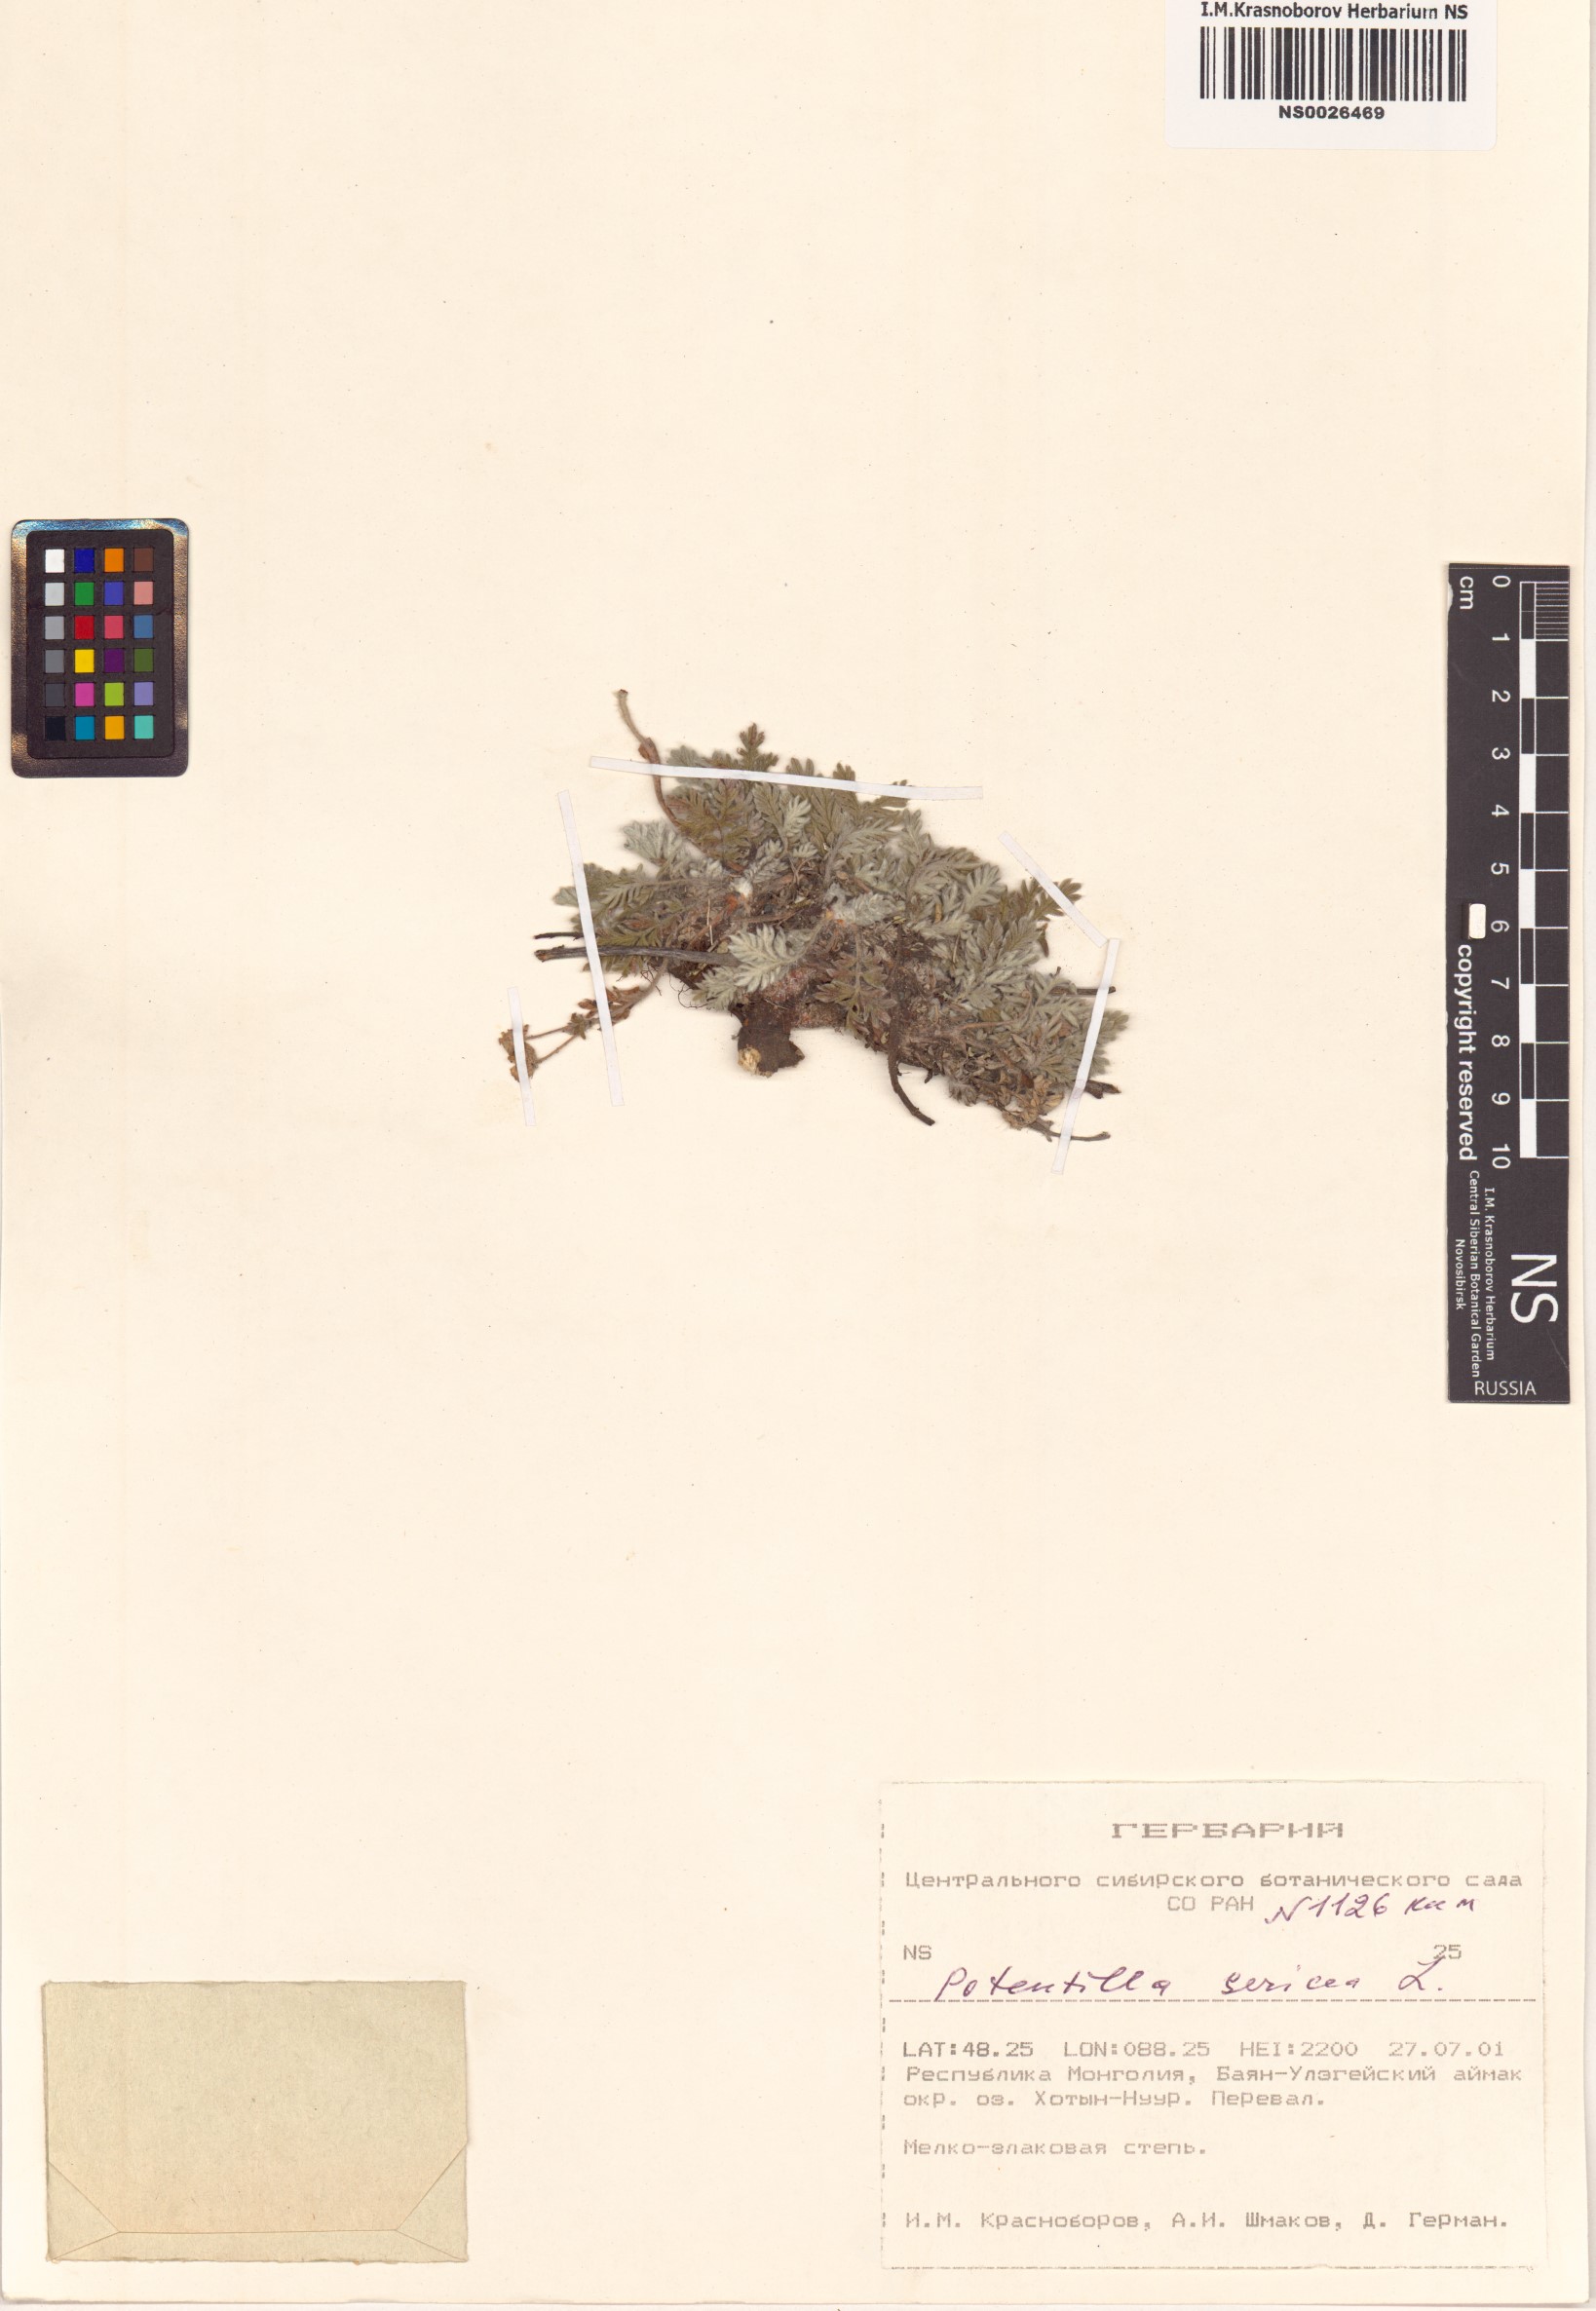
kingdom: Plantae
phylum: Tracheophyta
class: Magnoliopsida
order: Rosales
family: Rosaceae
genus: Potentilla
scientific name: Potentilla sericea
